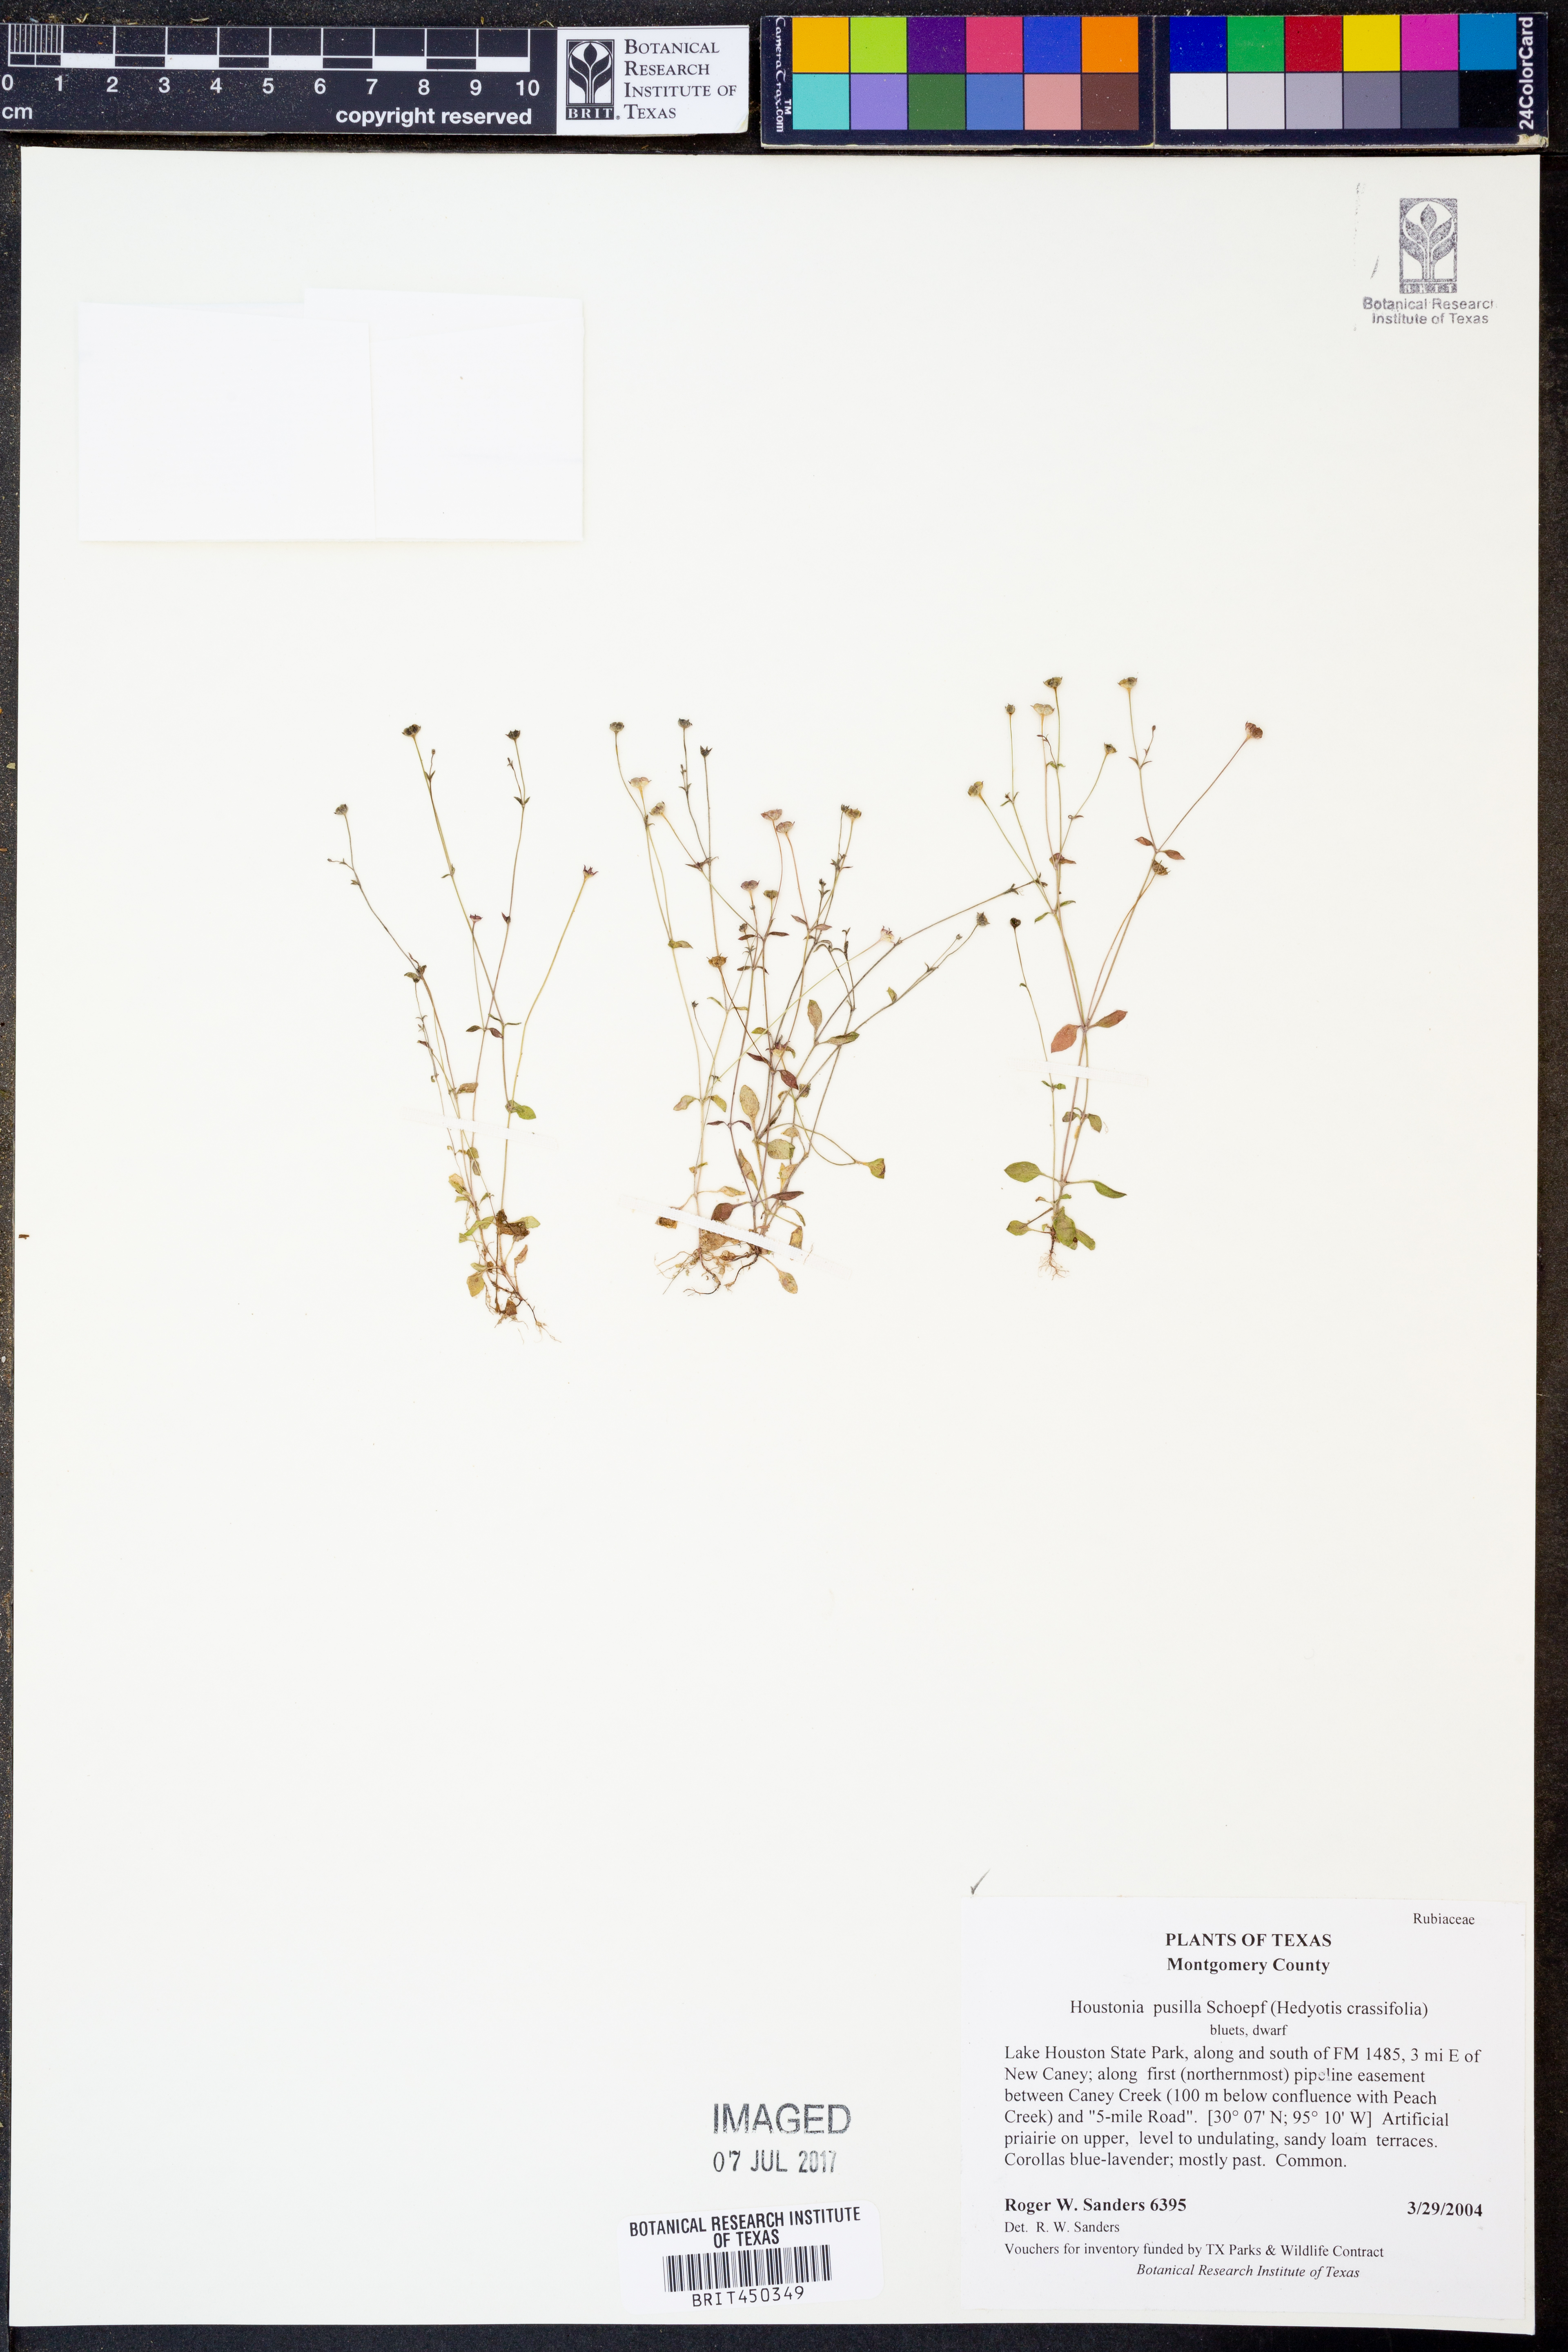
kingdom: Plantae
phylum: Tracheophyta
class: Magnoliopsida
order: Gentianales
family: Rubiaceae
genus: Houstonia
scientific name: Houstonia pusilla
